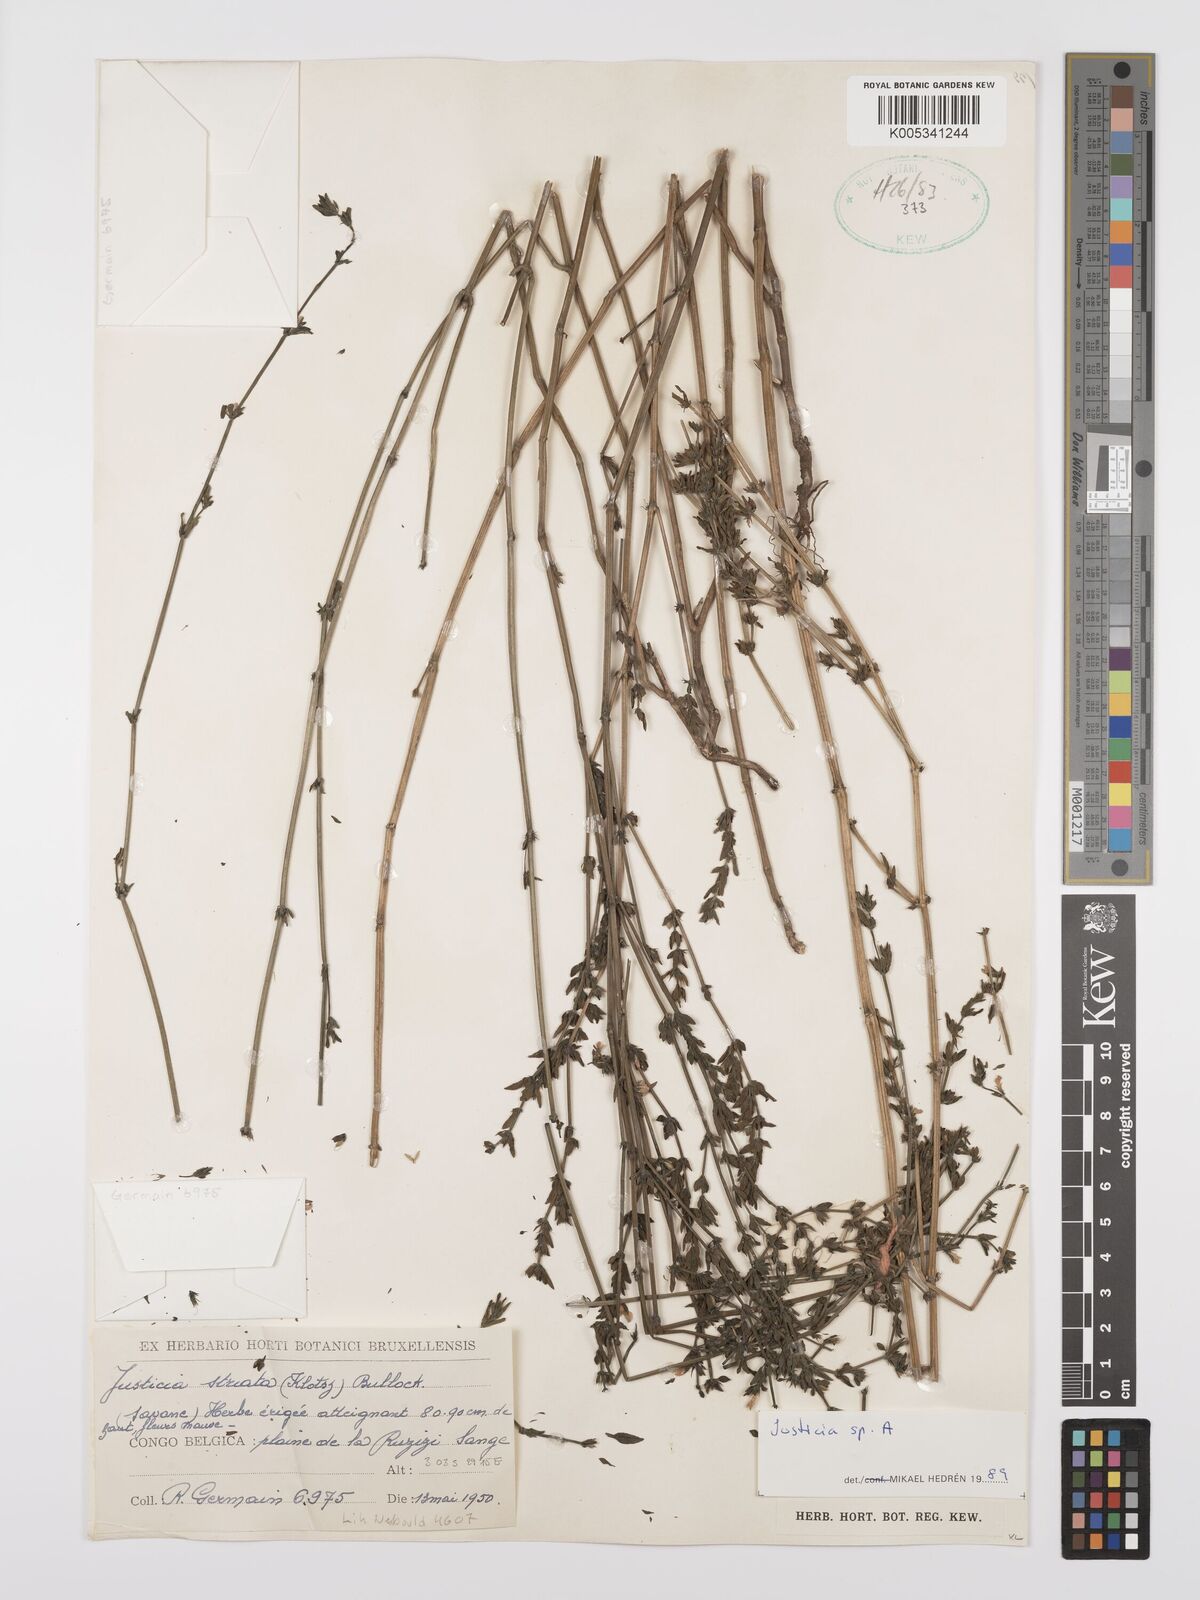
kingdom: Plantae
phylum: Tracheophyta
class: Magnoliopsida
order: Lamiales
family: Acanthaceae
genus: Justicia
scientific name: Justicia boaleri
